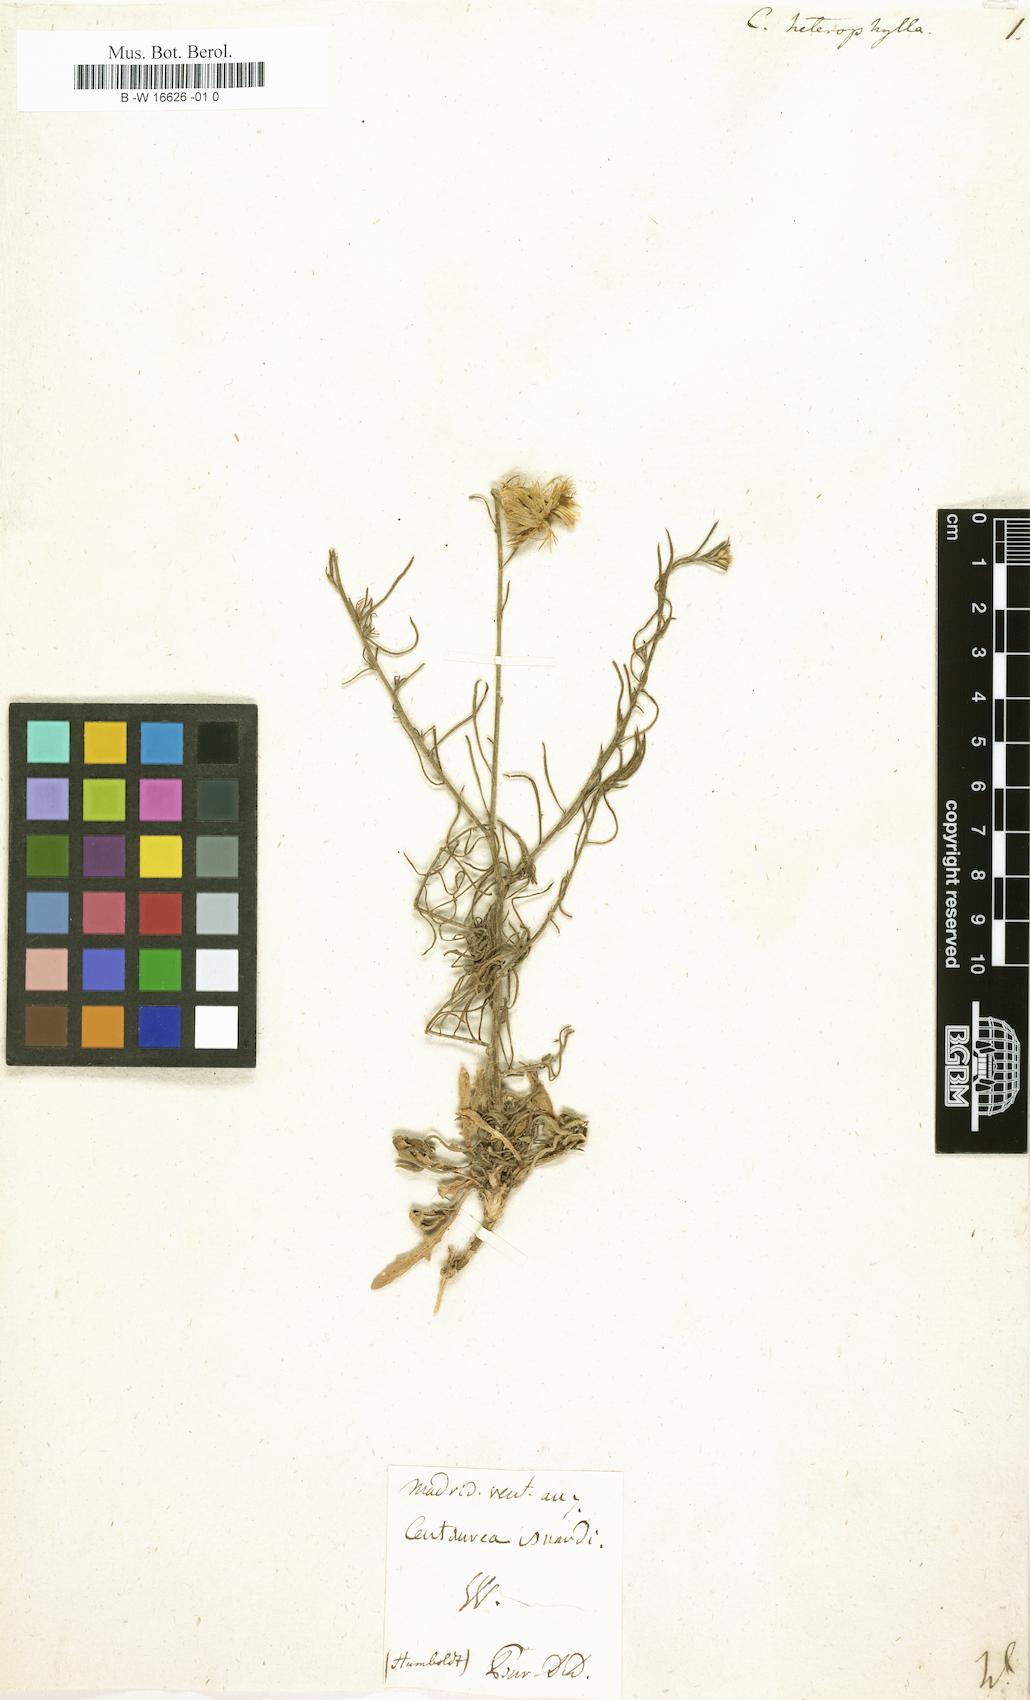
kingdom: Plantae
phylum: Tracheophyta
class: Magnoliopsida
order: Asterales
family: Asteraceae
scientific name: Asteraceae
